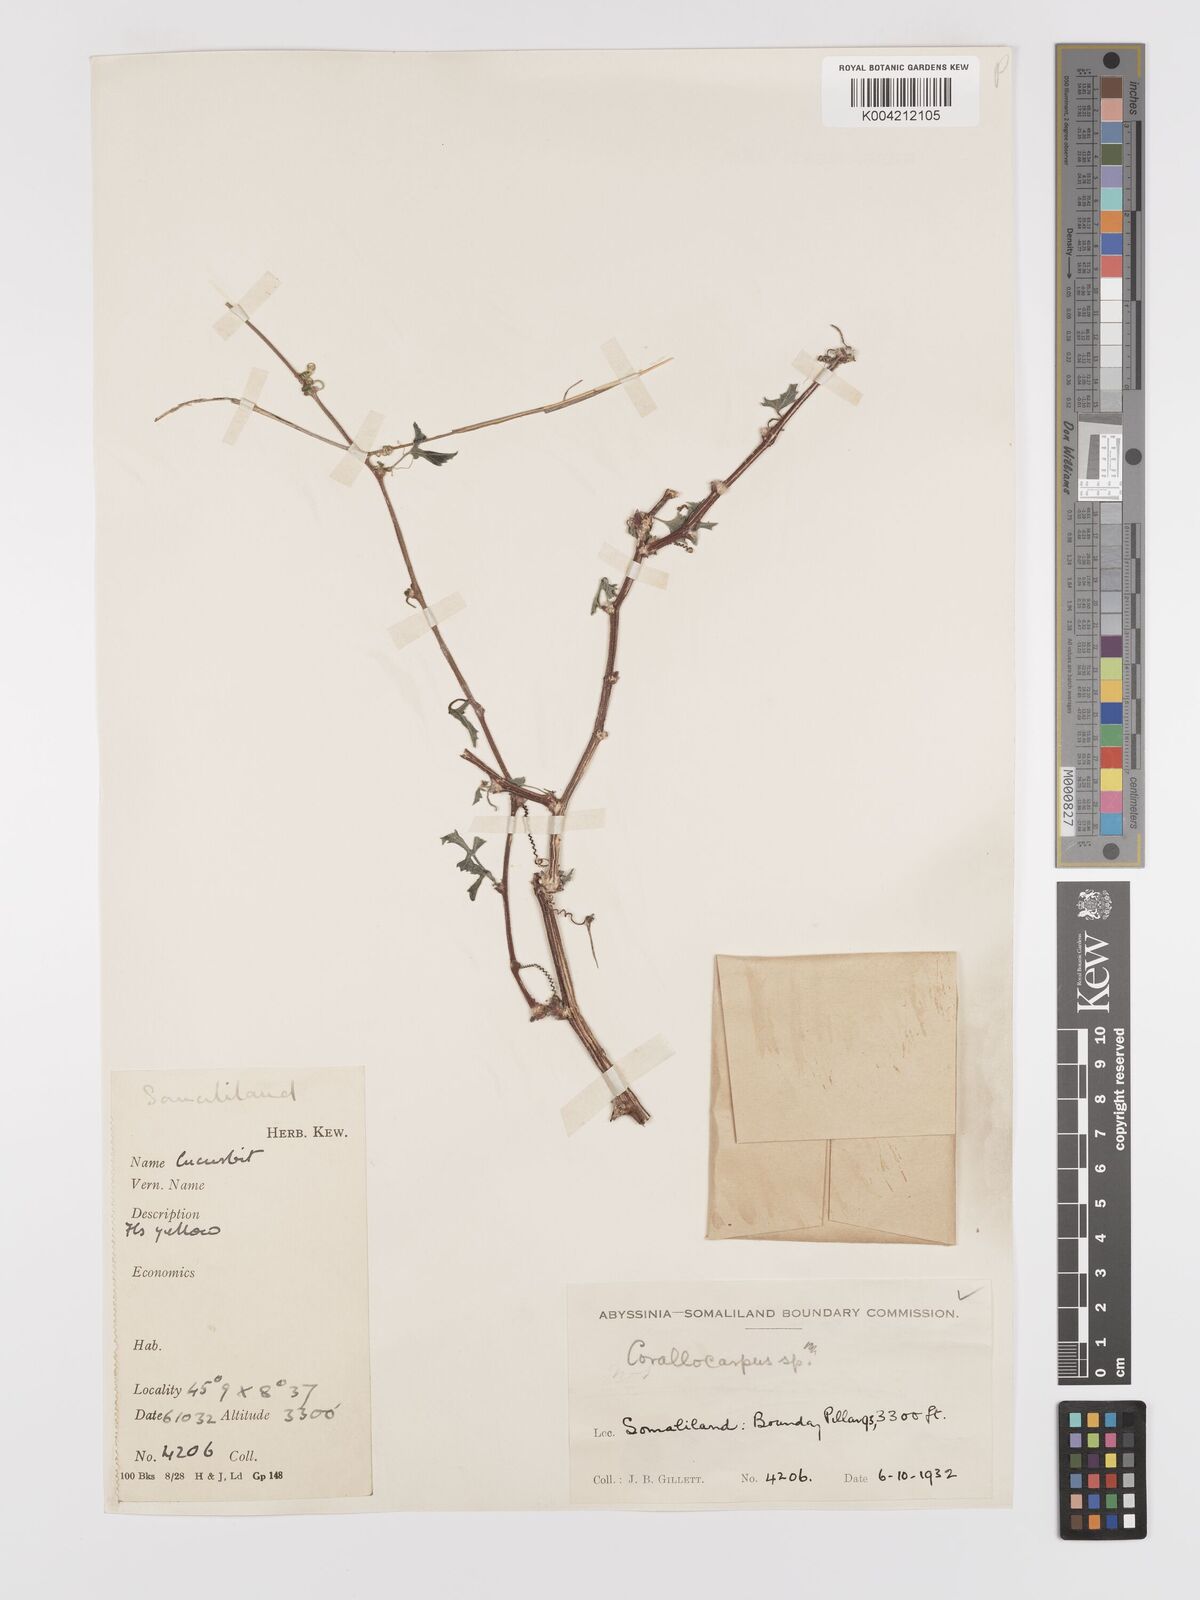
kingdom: Plantae
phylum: Tracheophyta
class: Magnoliopsida
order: Cucurbitales
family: Cucurbitaceae
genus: Kedrostis
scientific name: Kedrostis gijef
